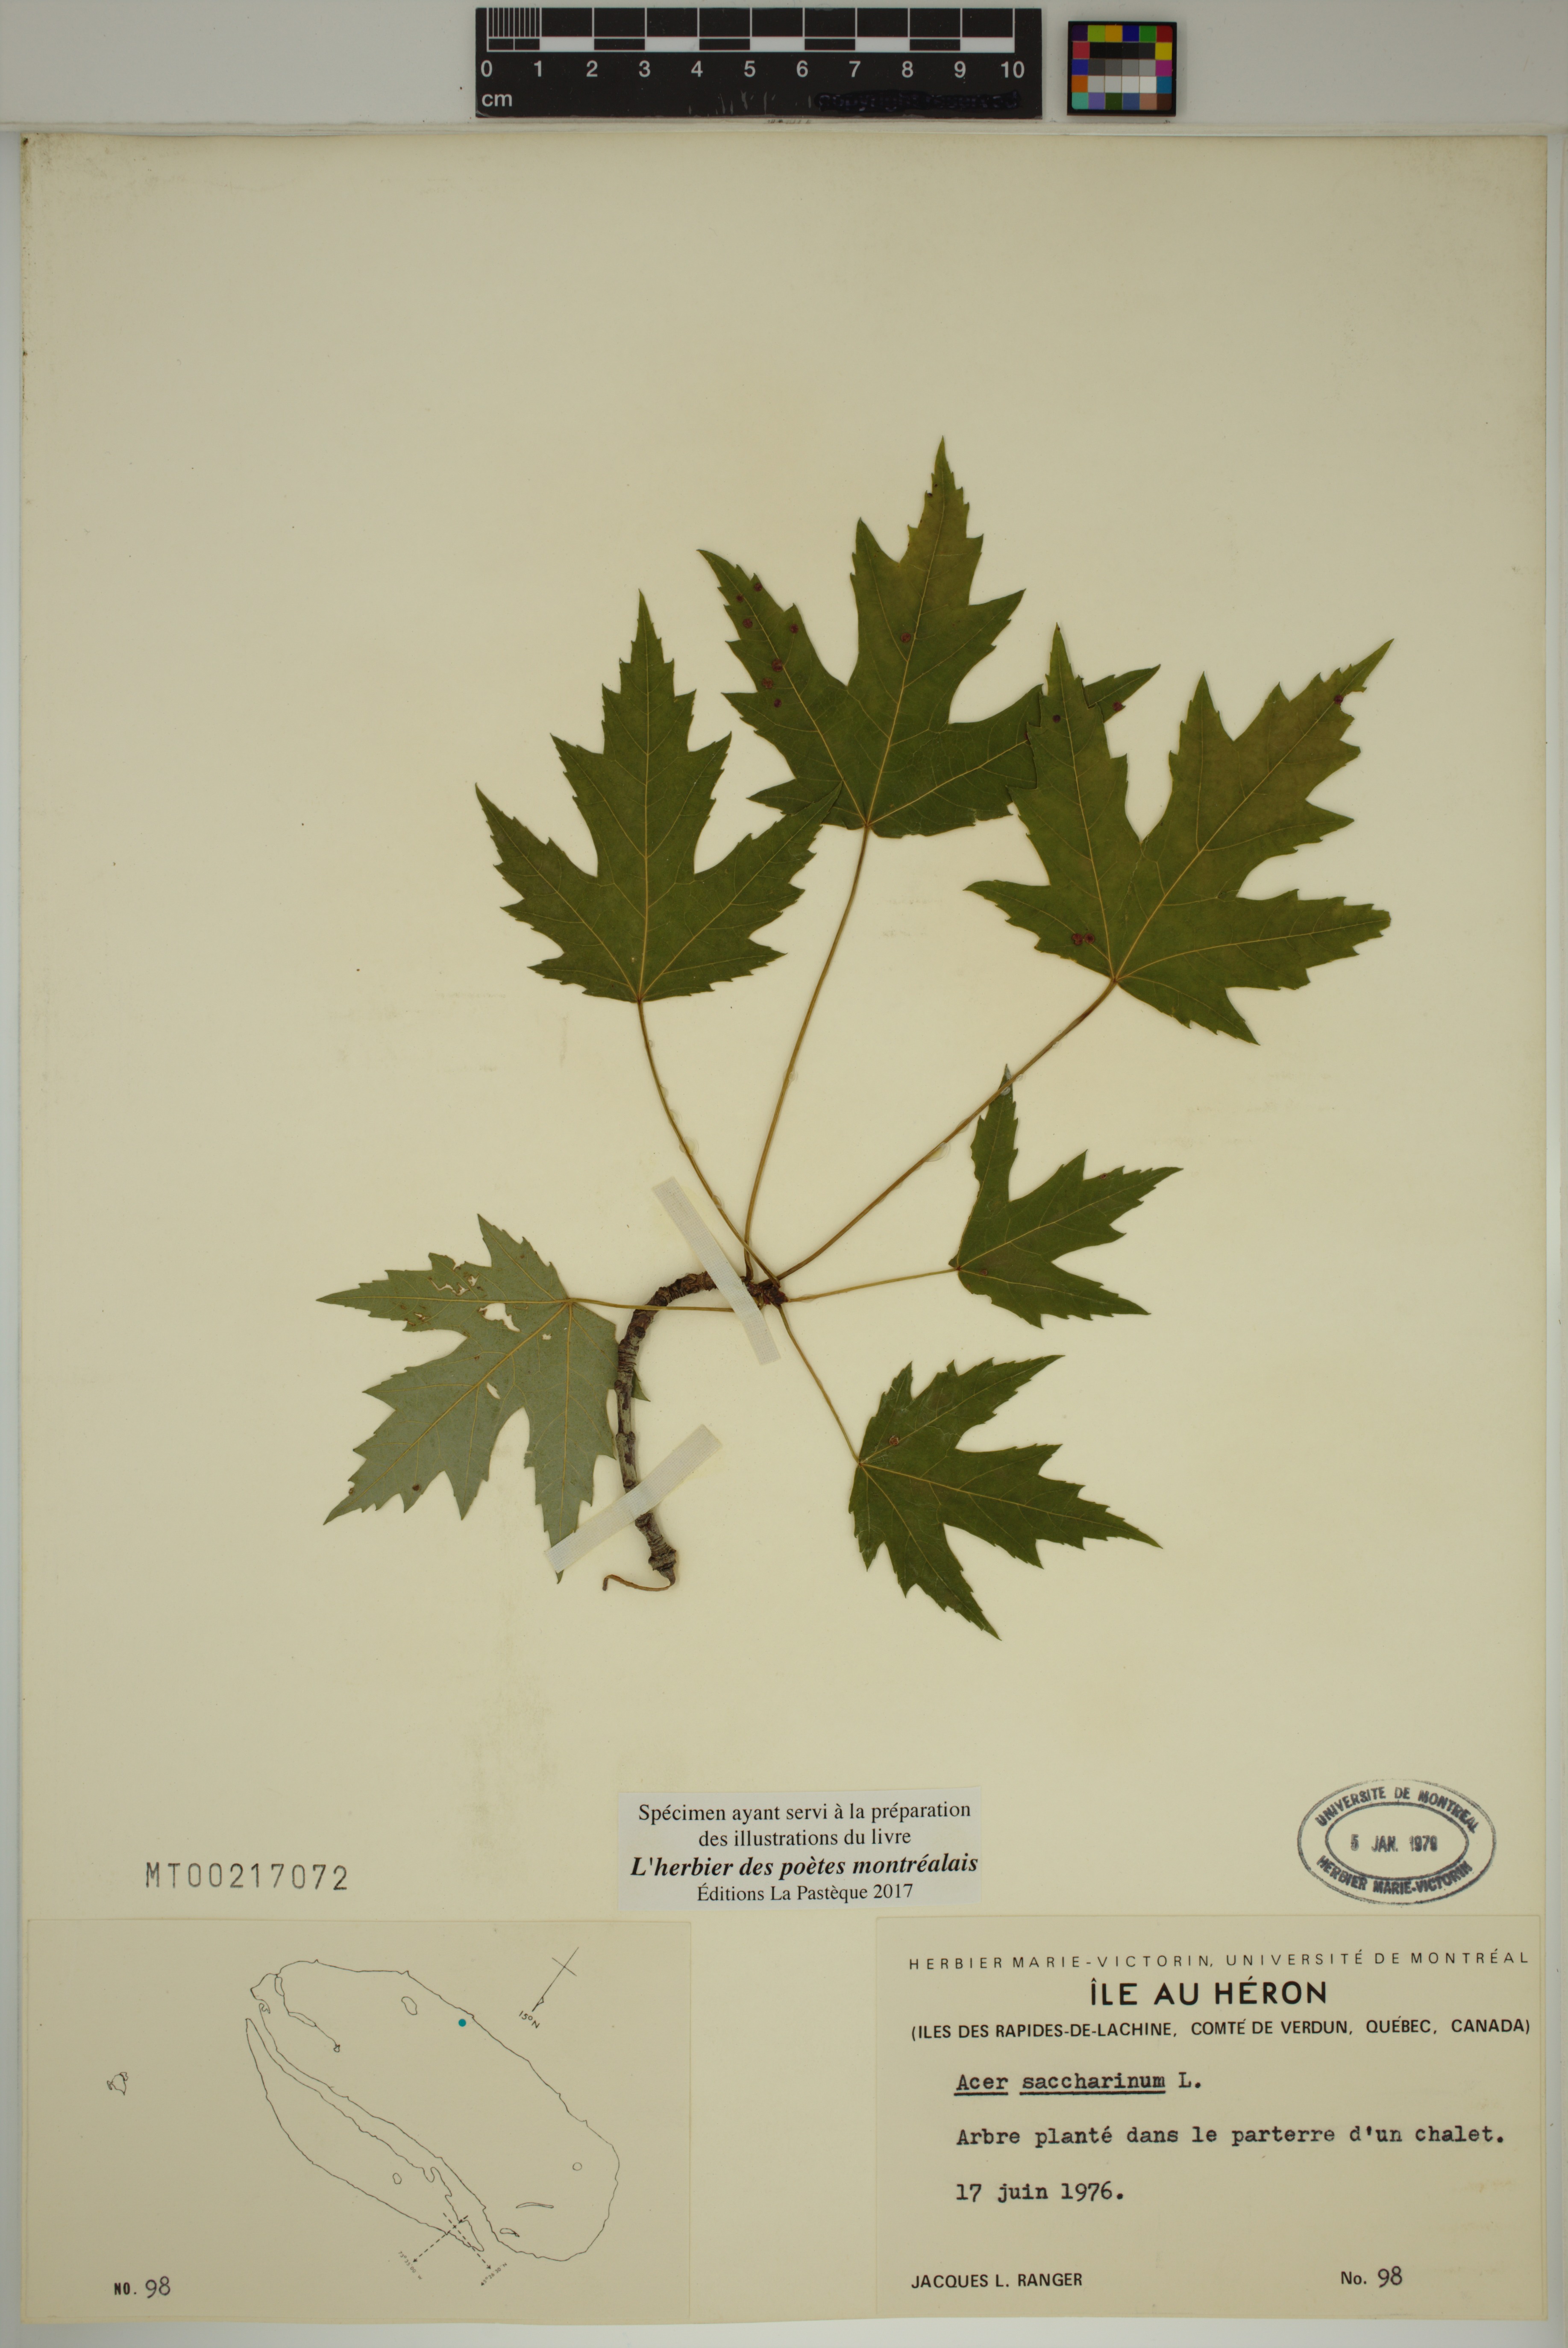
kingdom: Plantae
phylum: Tracheophyta
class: Magnoliopsida
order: Sapindales
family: Sapindaceae
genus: Acer
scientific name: Acer saccharinum
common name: Silver maple
